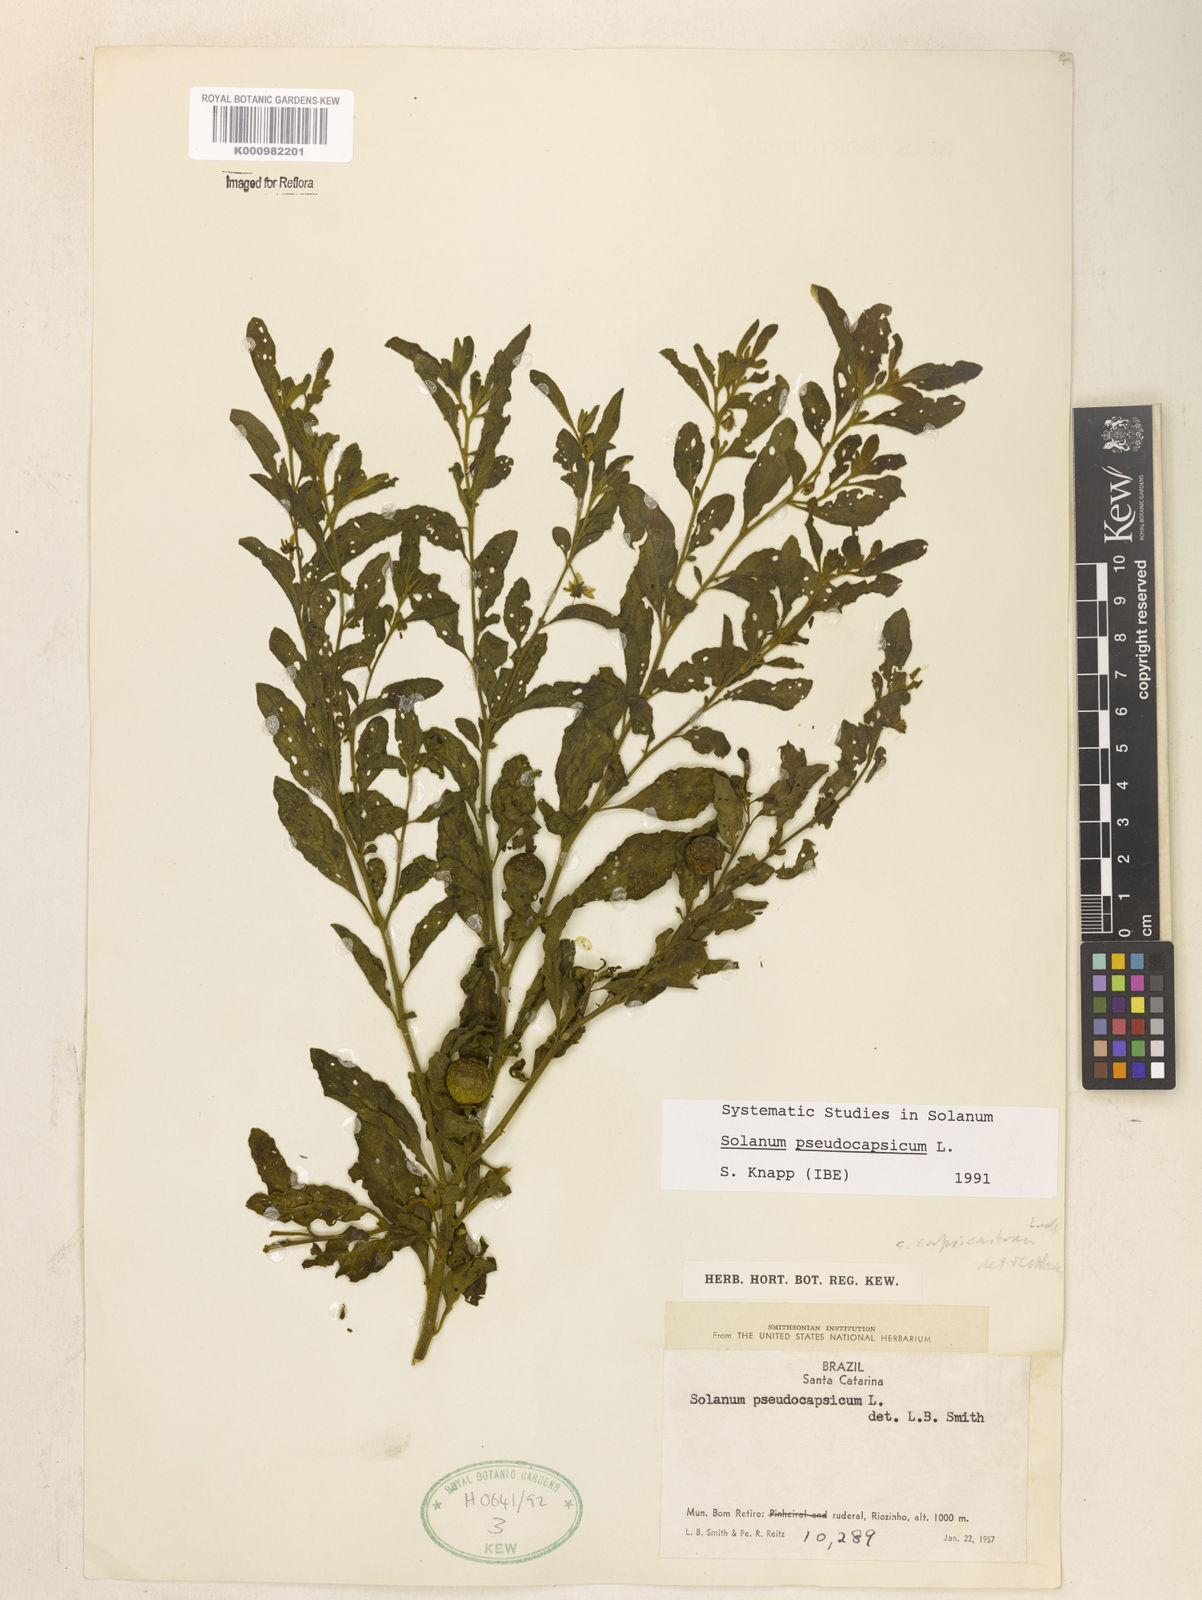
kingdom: Plantae
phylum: Tracheophyta
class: Magnoliopsida
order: Solanales
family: Solanaceae
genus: Solanum
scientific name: Solanum pseudocapsicum
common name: Jerusalem cherry
